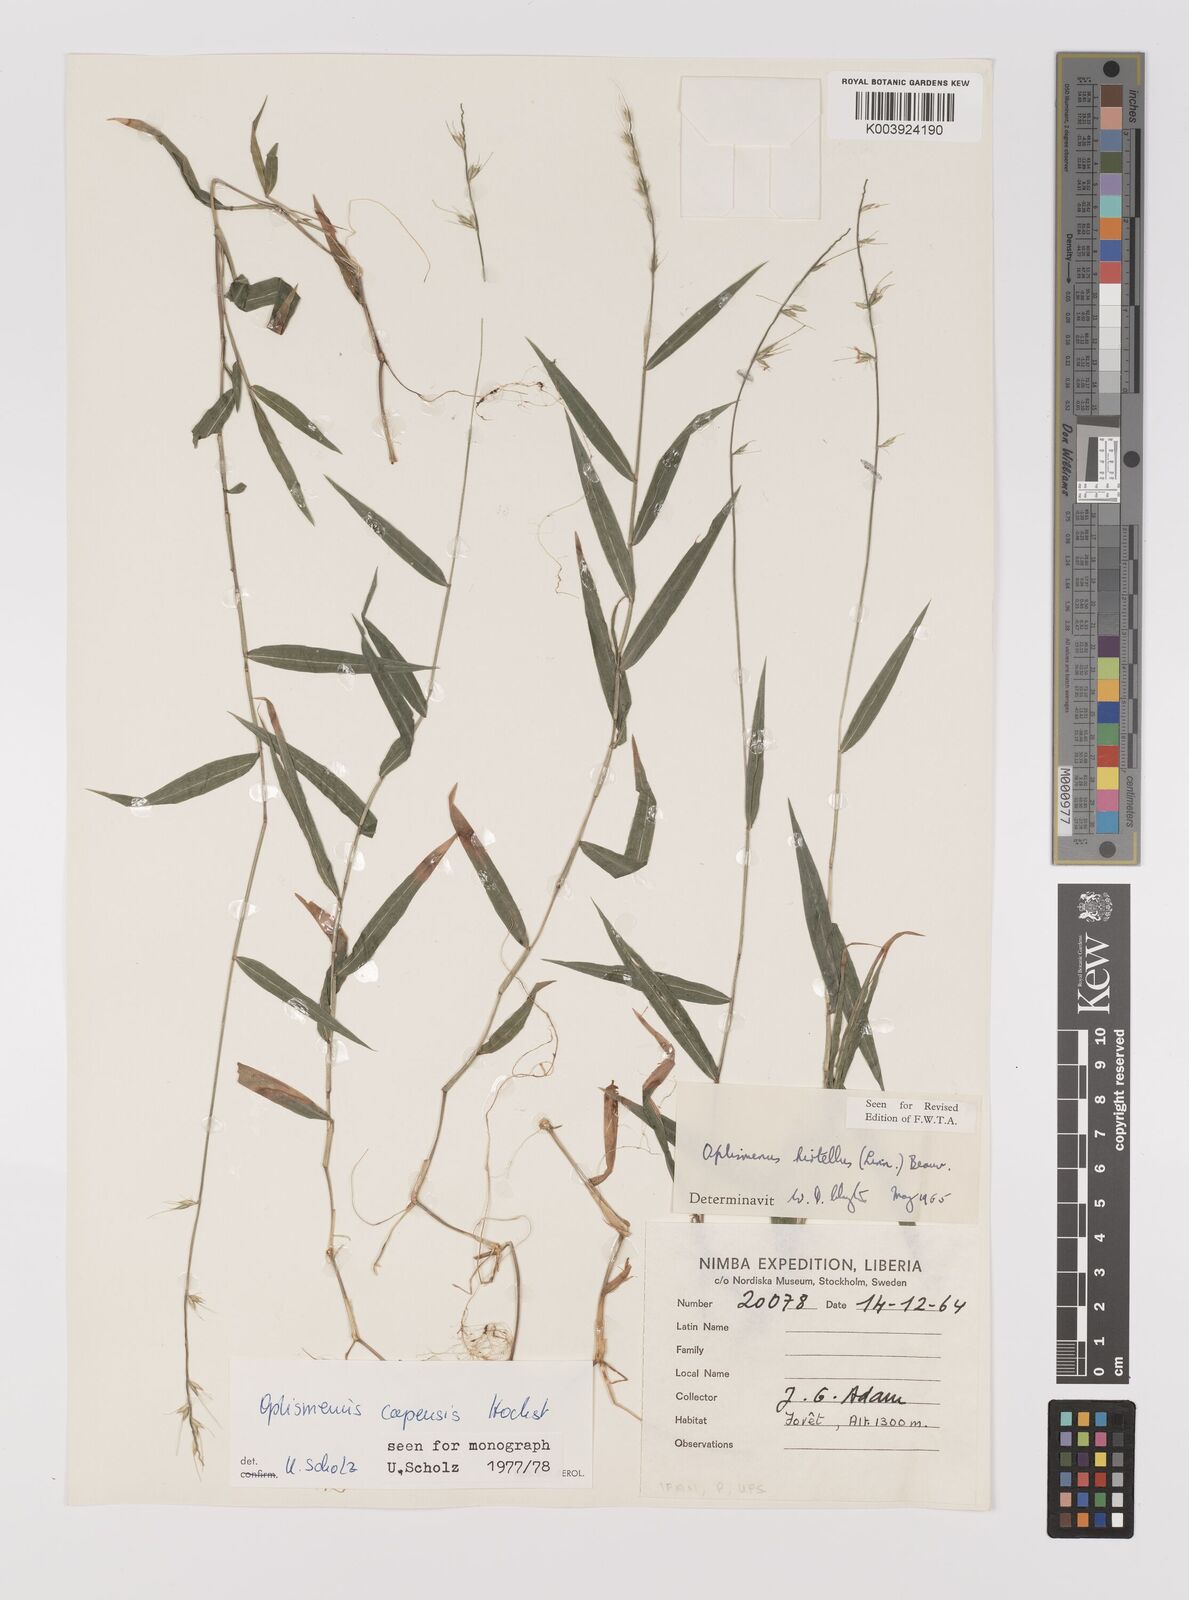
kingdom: Plantae
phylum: Tracheophyta
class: Liliopsida
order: Poales
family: Poaceae
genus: Oplismenus
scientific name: Oplismenus hirtellus
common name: Basketgrass
